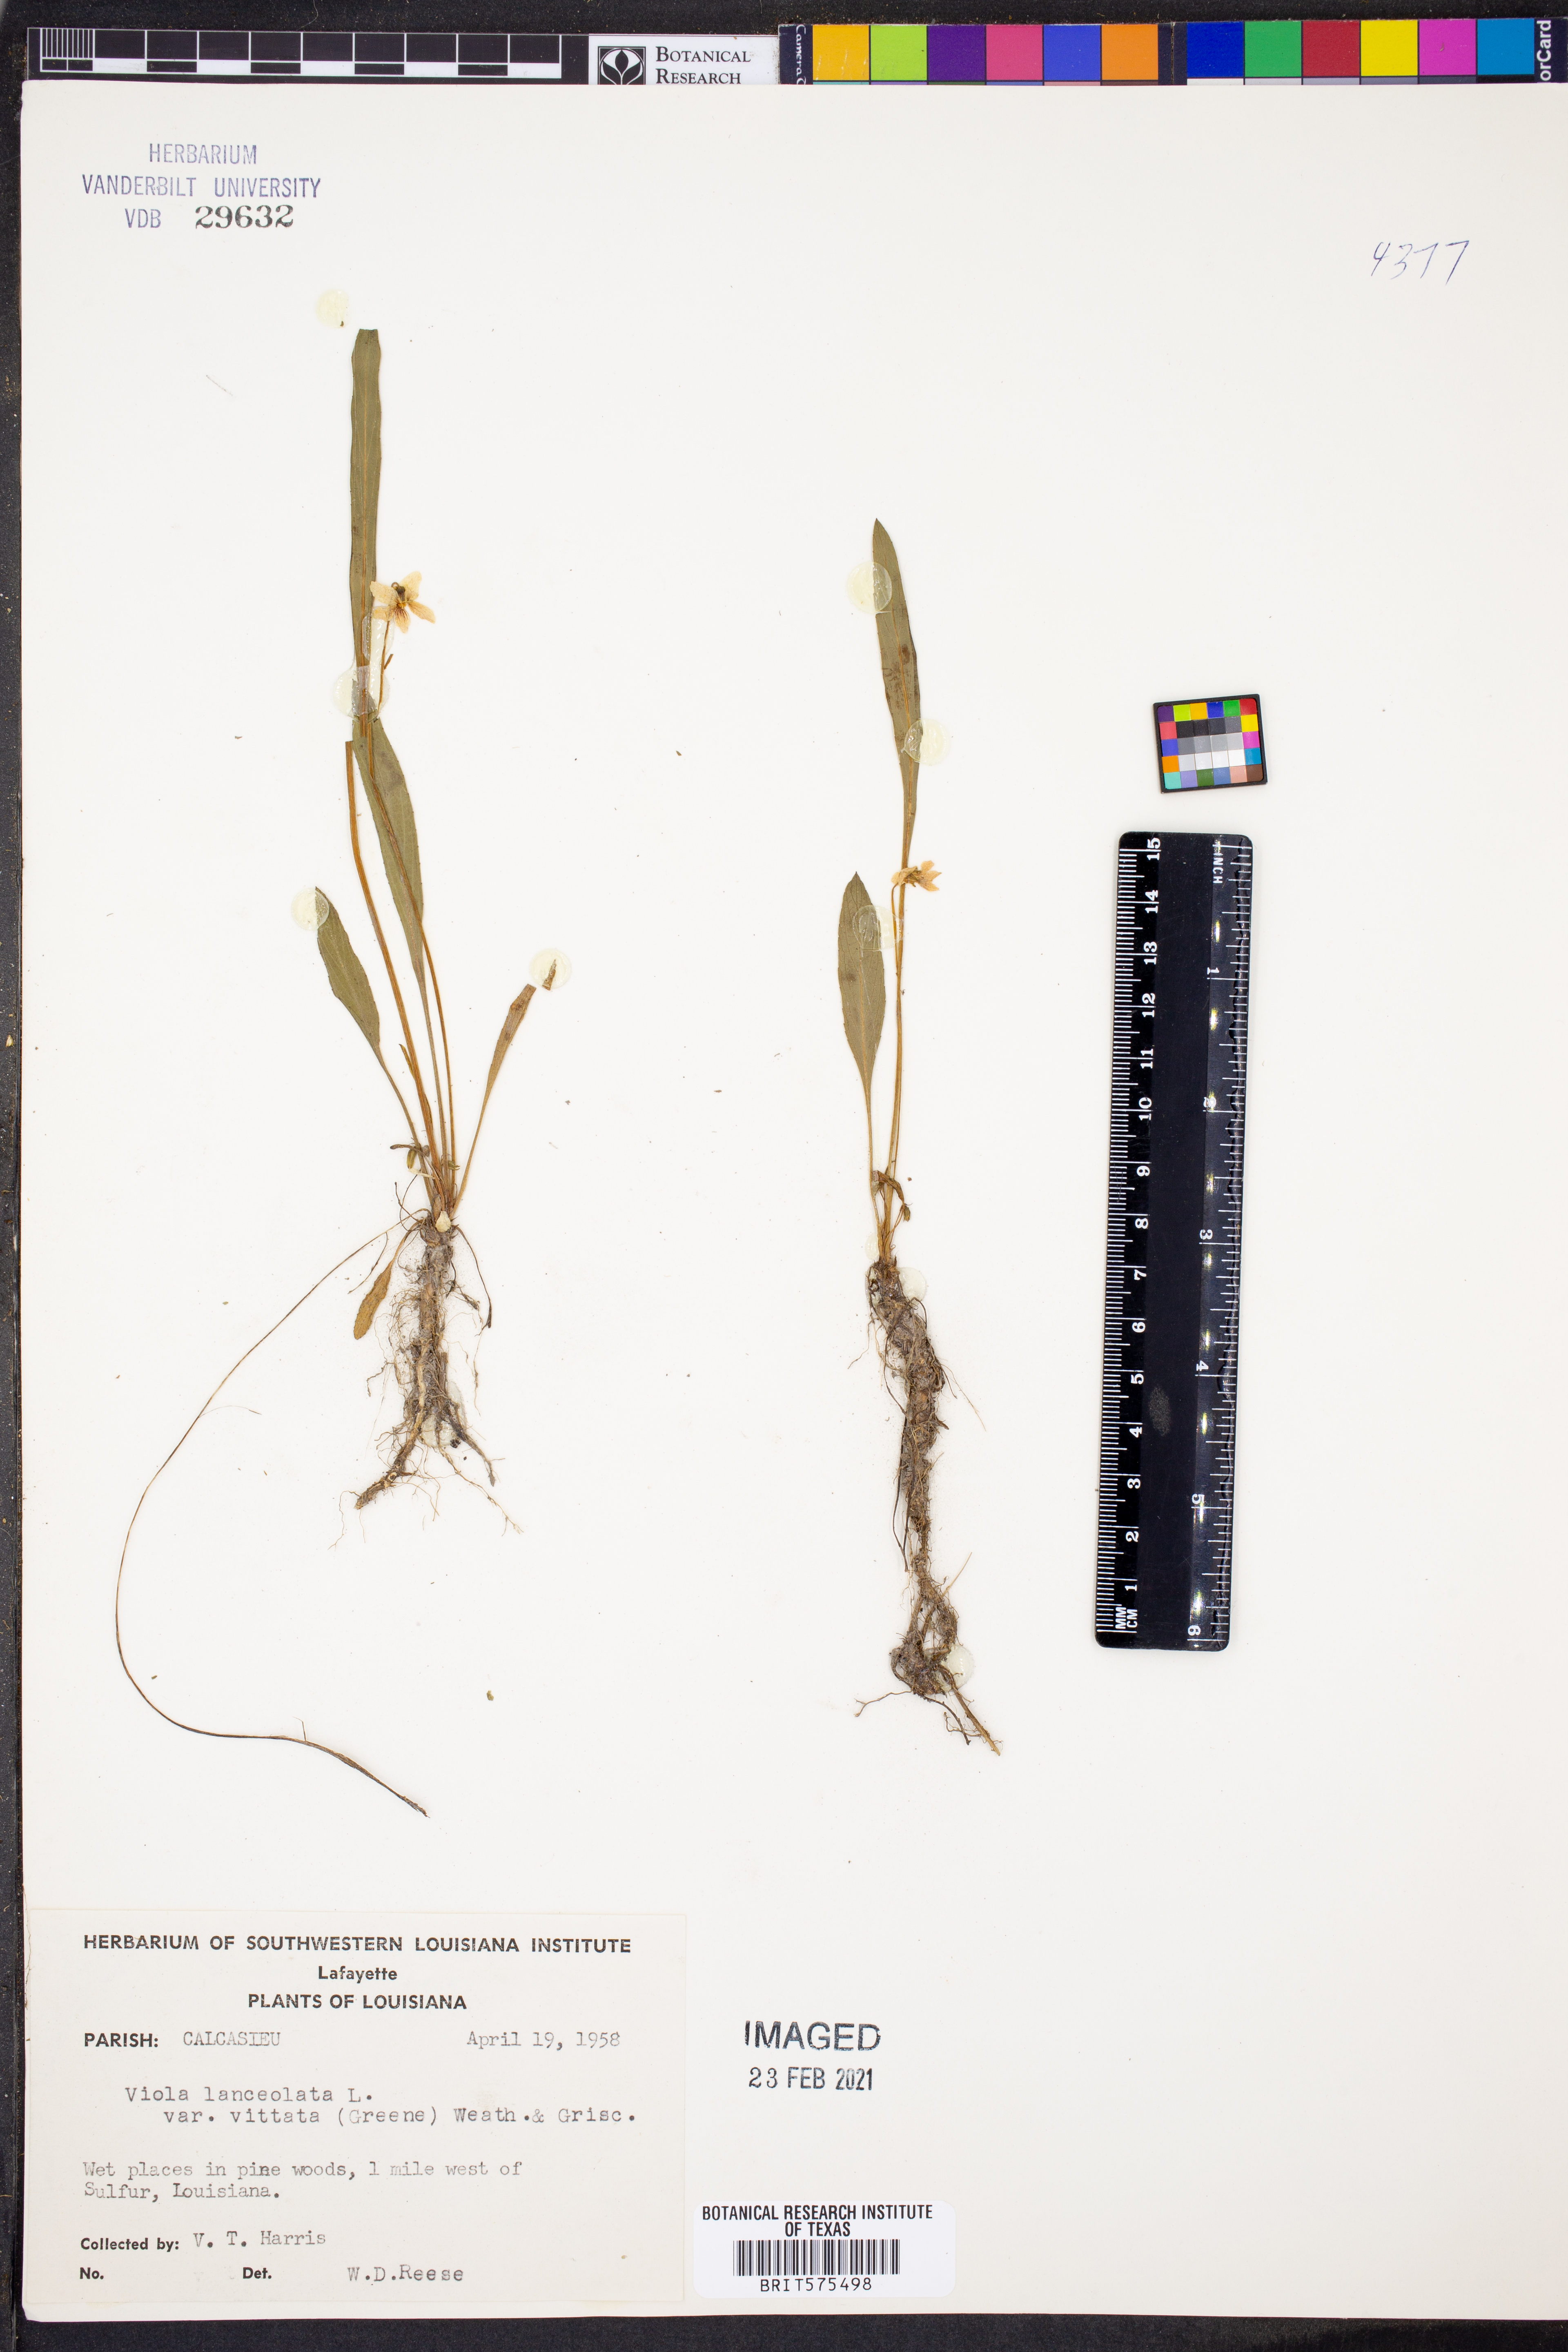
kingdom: Plantae
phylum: Tracheophyta
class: Magnoliopsida
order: Malpighiales
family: Violaceae
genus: Viola
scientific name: Viola vittata
